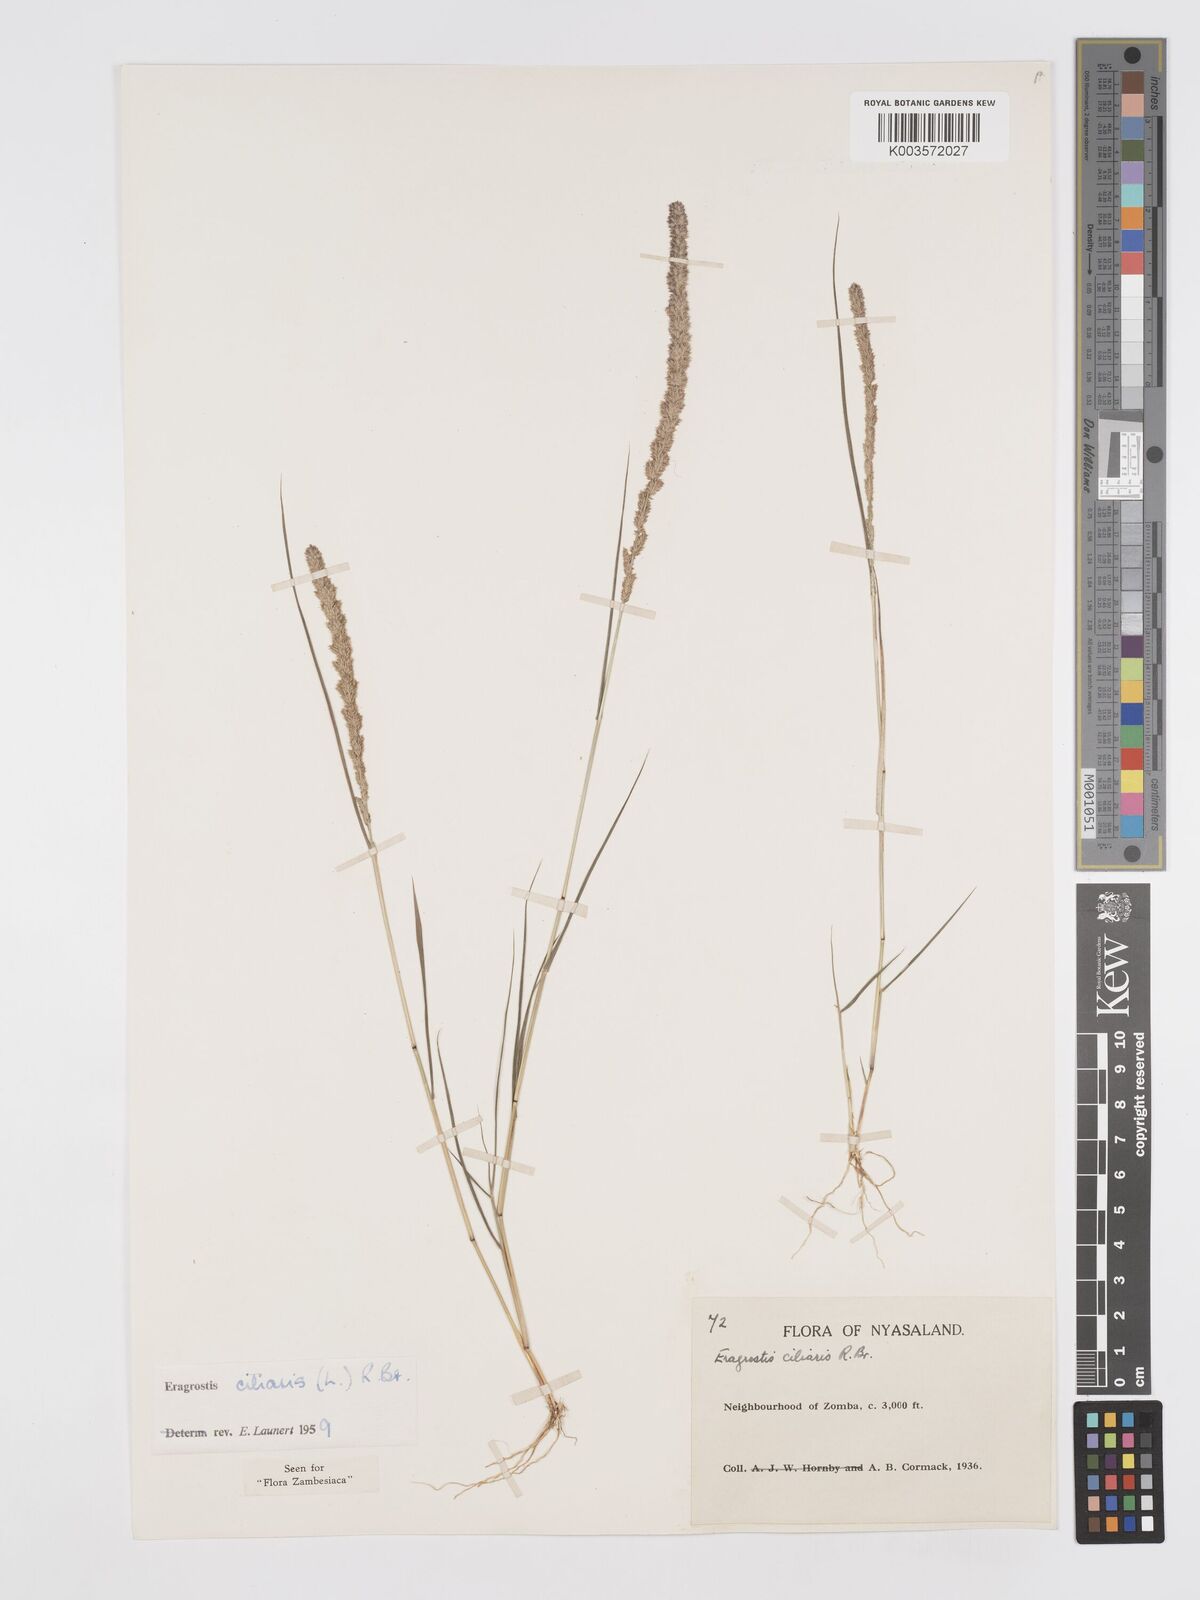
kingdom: Plantae
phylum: Tracheophyta
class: Liliopsida
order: Poales
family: Poaceae
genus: Eragrostis
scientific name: Eragrostis ciliaris
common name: Gophertail lovegrass
